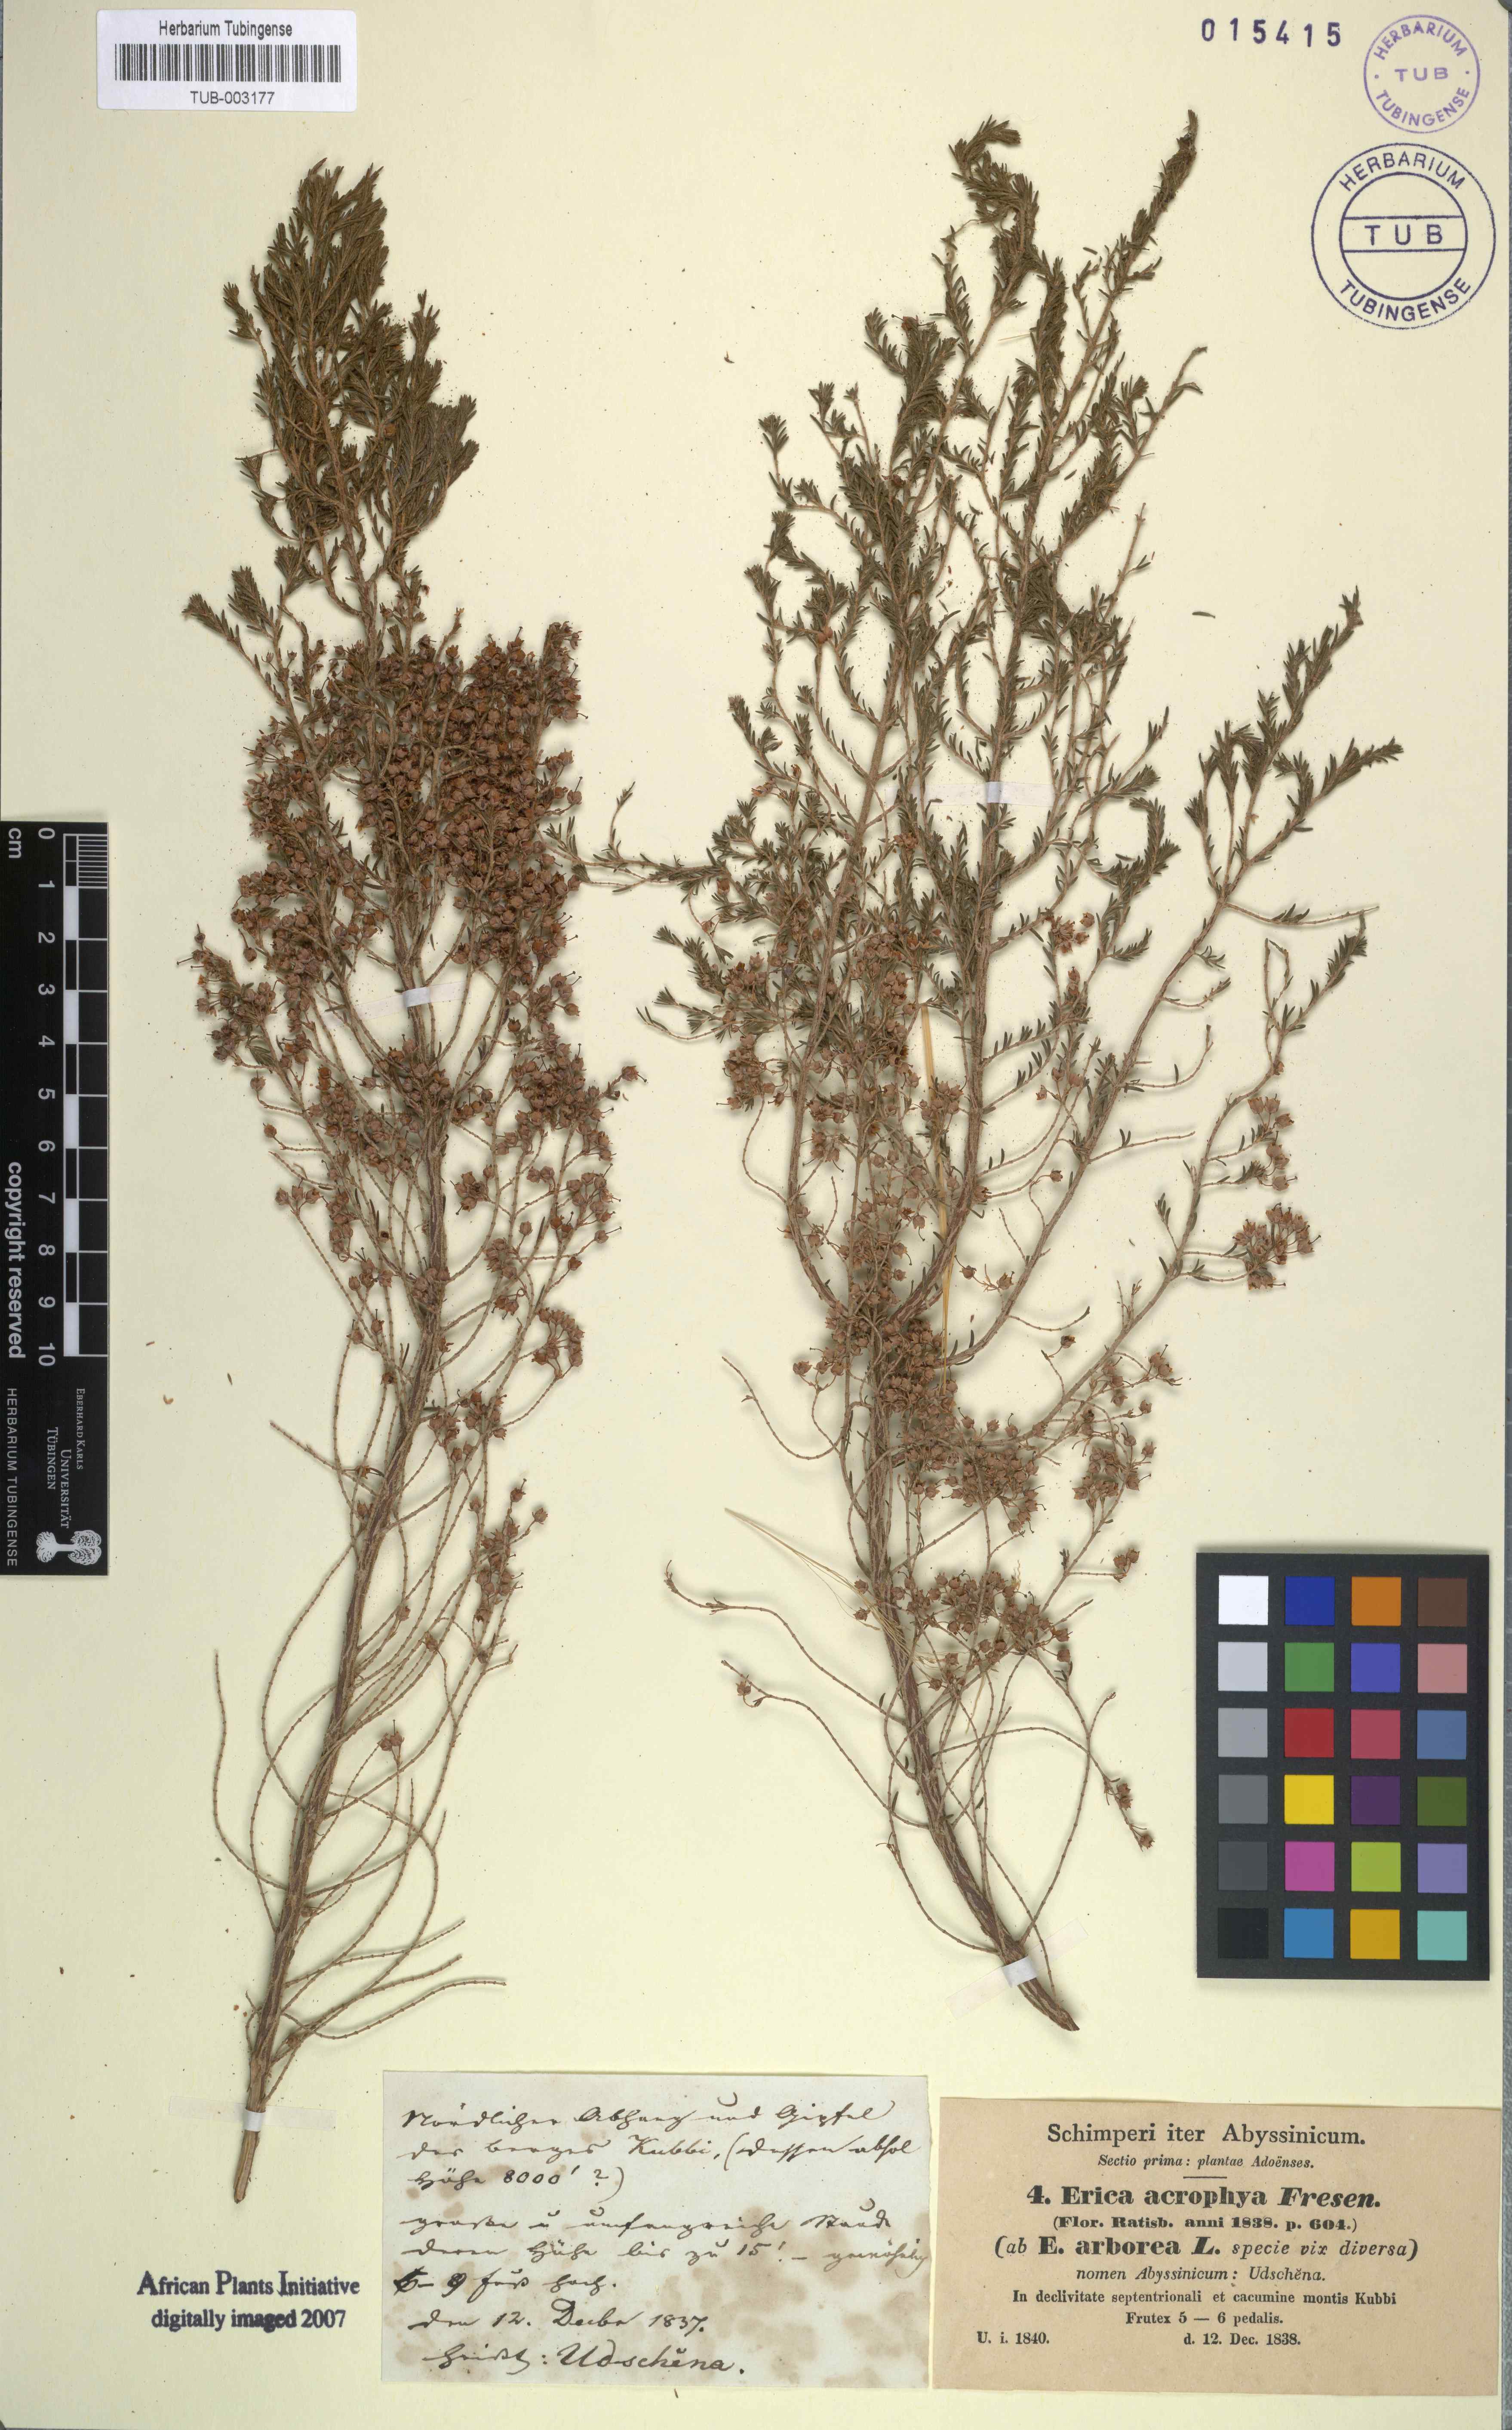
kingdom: Plantae
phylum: Tracheophyta
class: Magnoliopsida
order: Ericales
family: Ericaceae
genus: Erica
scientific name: Erica arborea
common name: Tree heath
